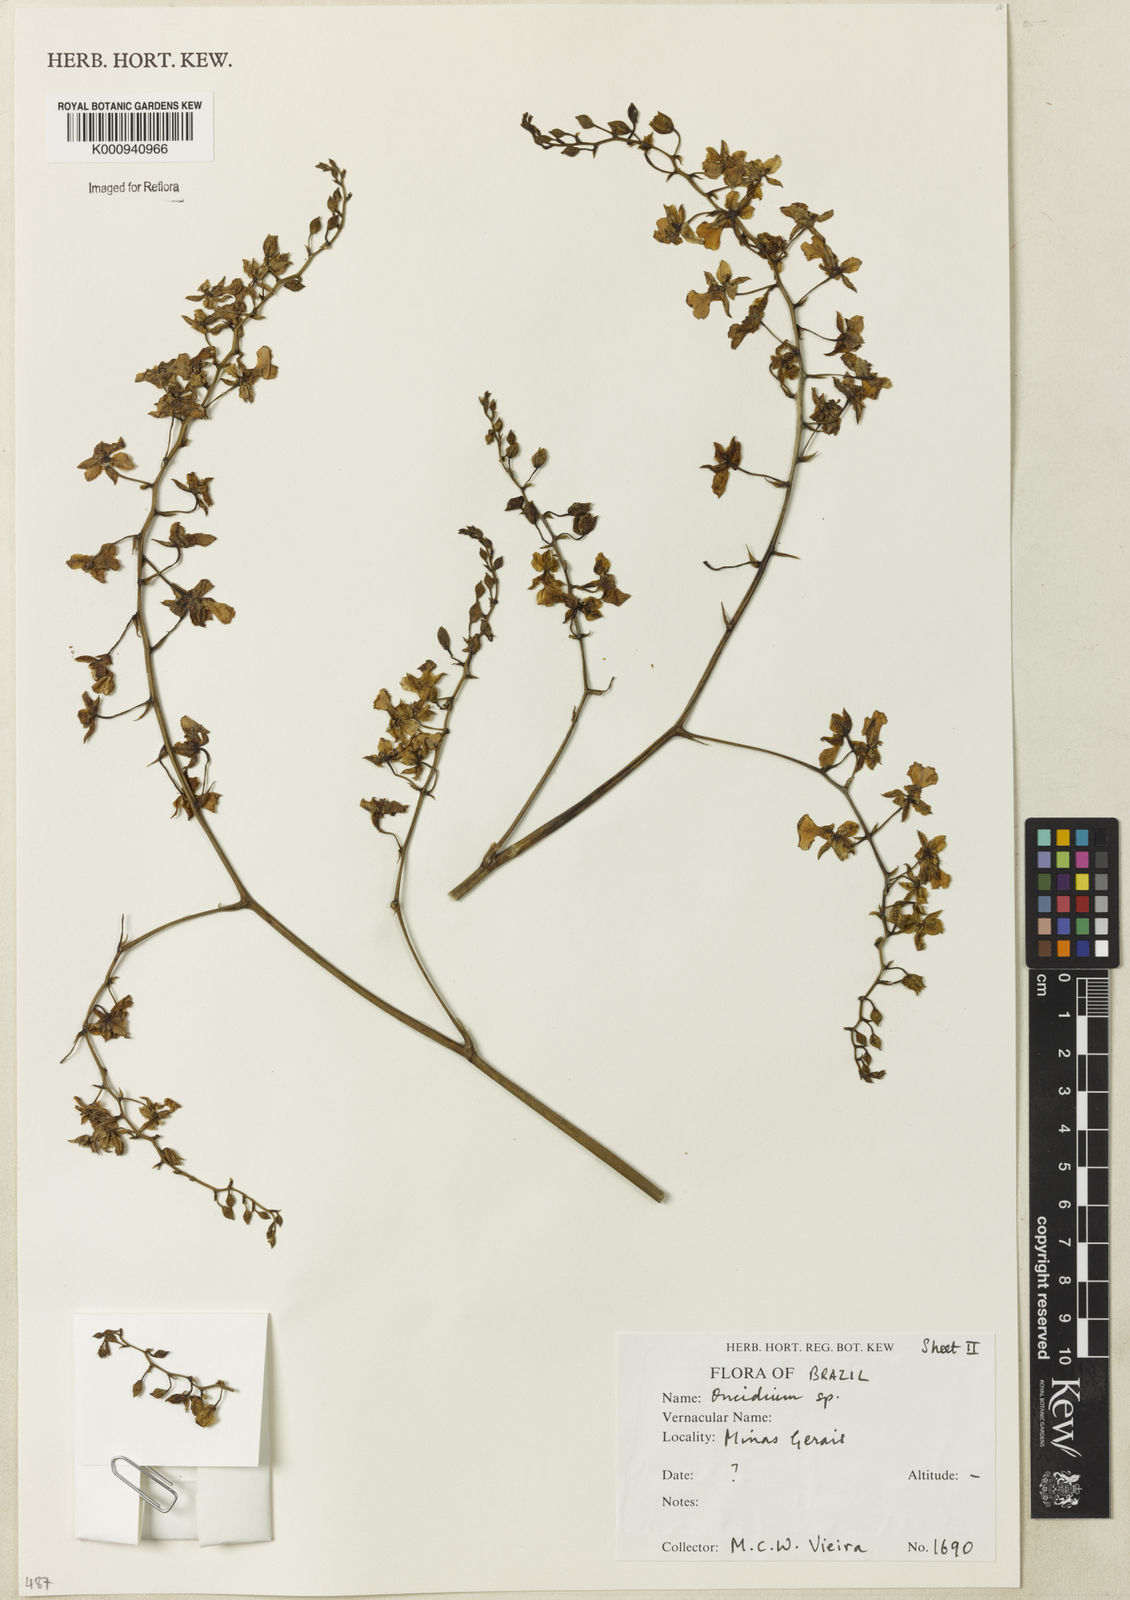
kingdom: Plantae
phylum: Tracheophyta
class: Liliopsida
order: Asparagales
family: Orchidaceae
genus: Oncidium
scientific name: Oncidium
